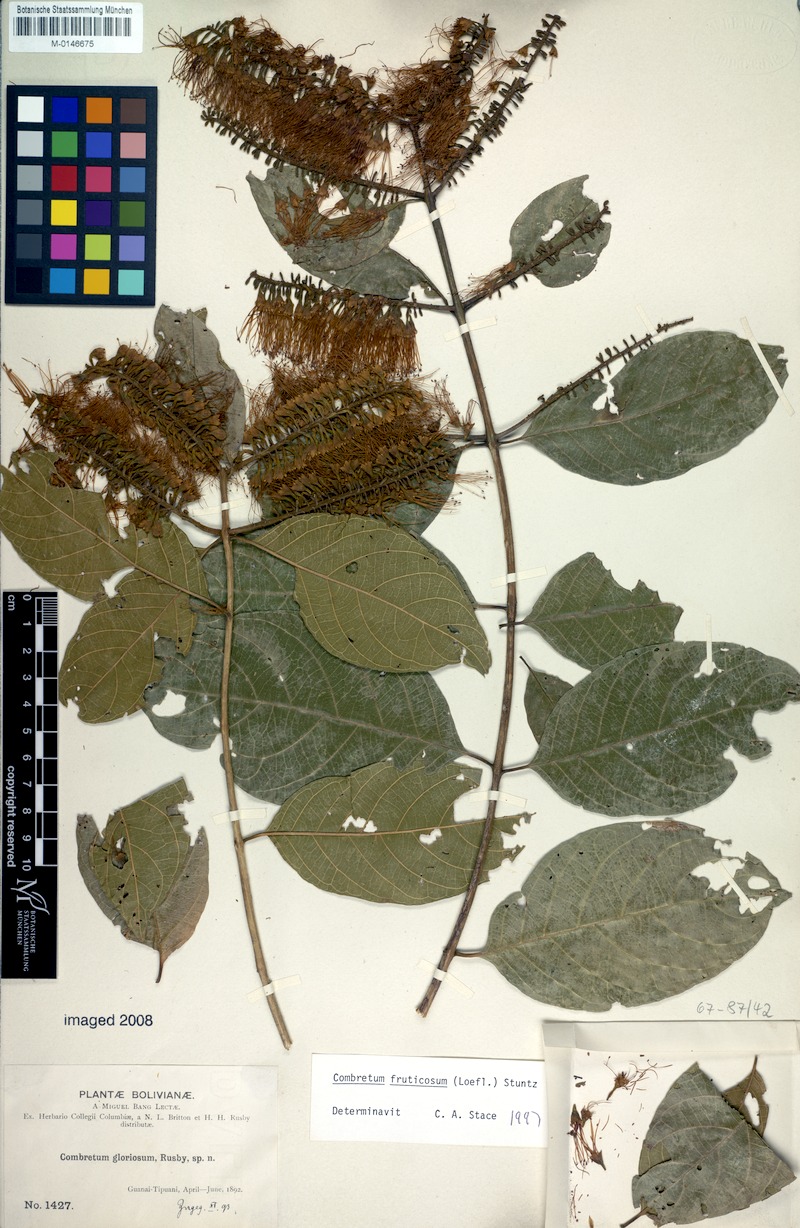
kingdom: Plantae
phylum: Tracheophyta
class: Magnoliopsida
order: Myrtales
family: Combretaceae
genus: Combretum
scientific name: Combretum fruticosum
